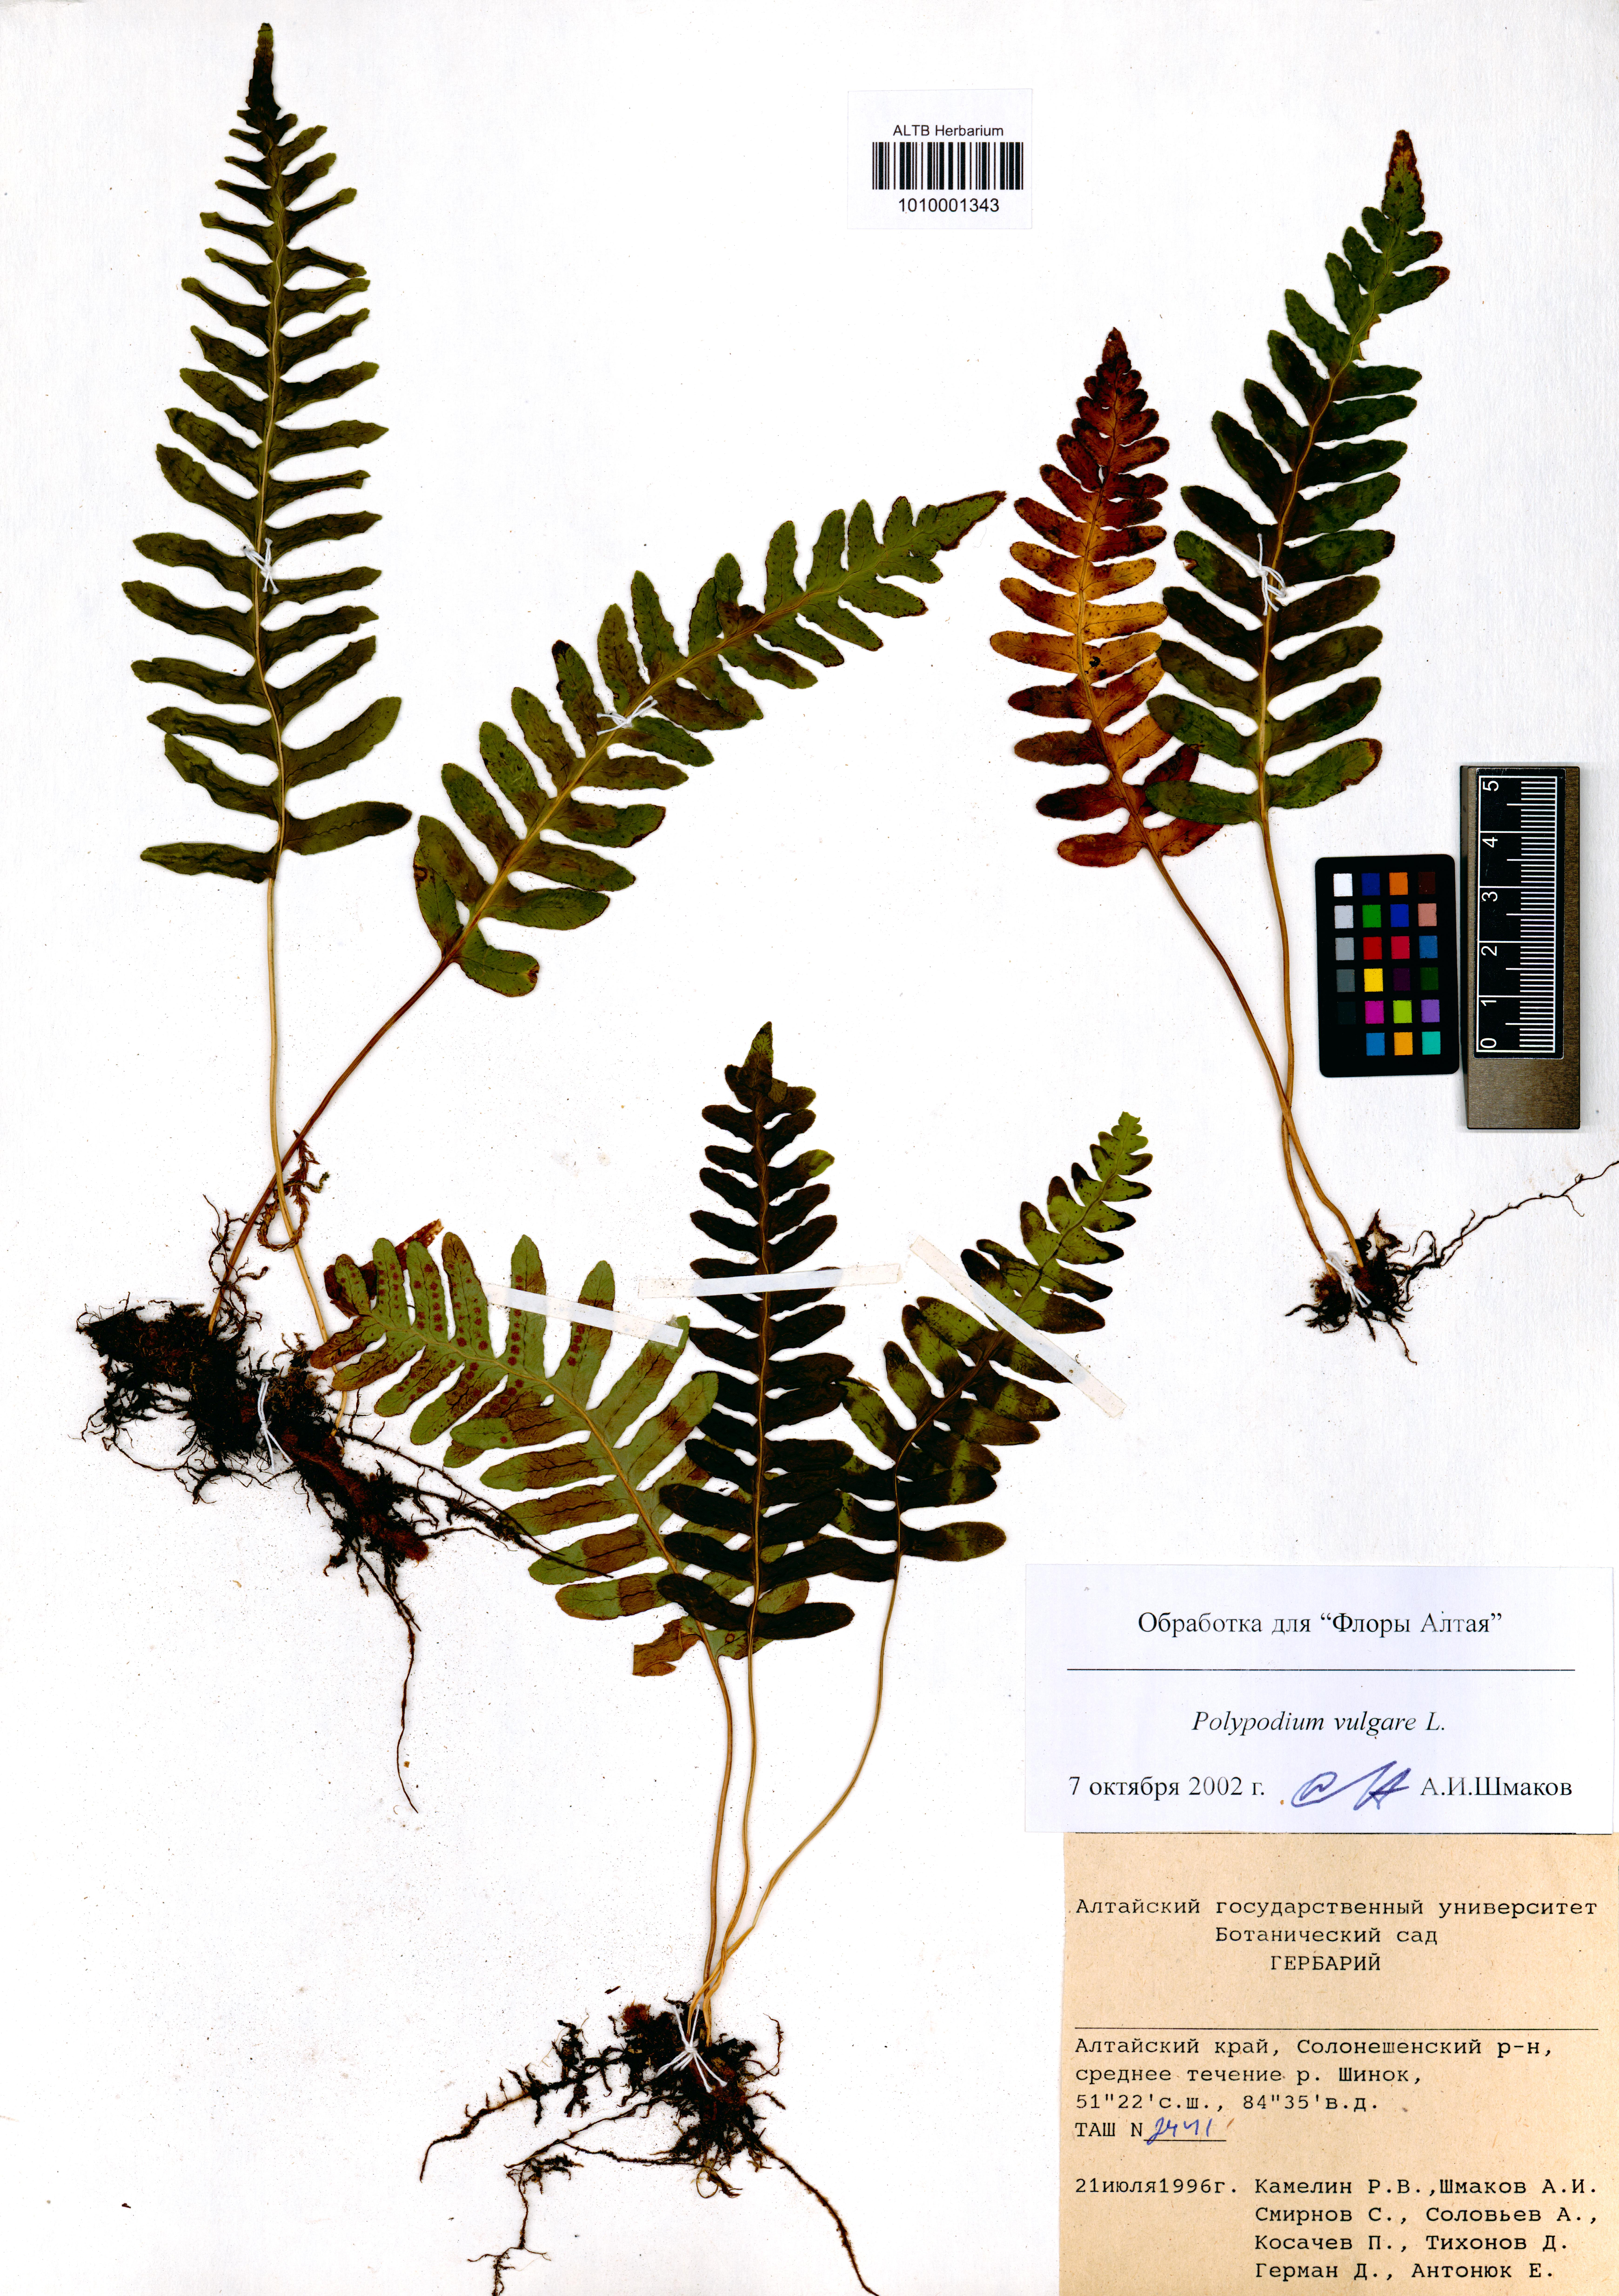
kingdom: Plantae
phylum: Tracheophyta
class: Polypodiopsida
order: Polypodiales
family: Polypodiaceae
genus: Polypodium
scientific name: Polypodium vulgare
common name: Common polypody
